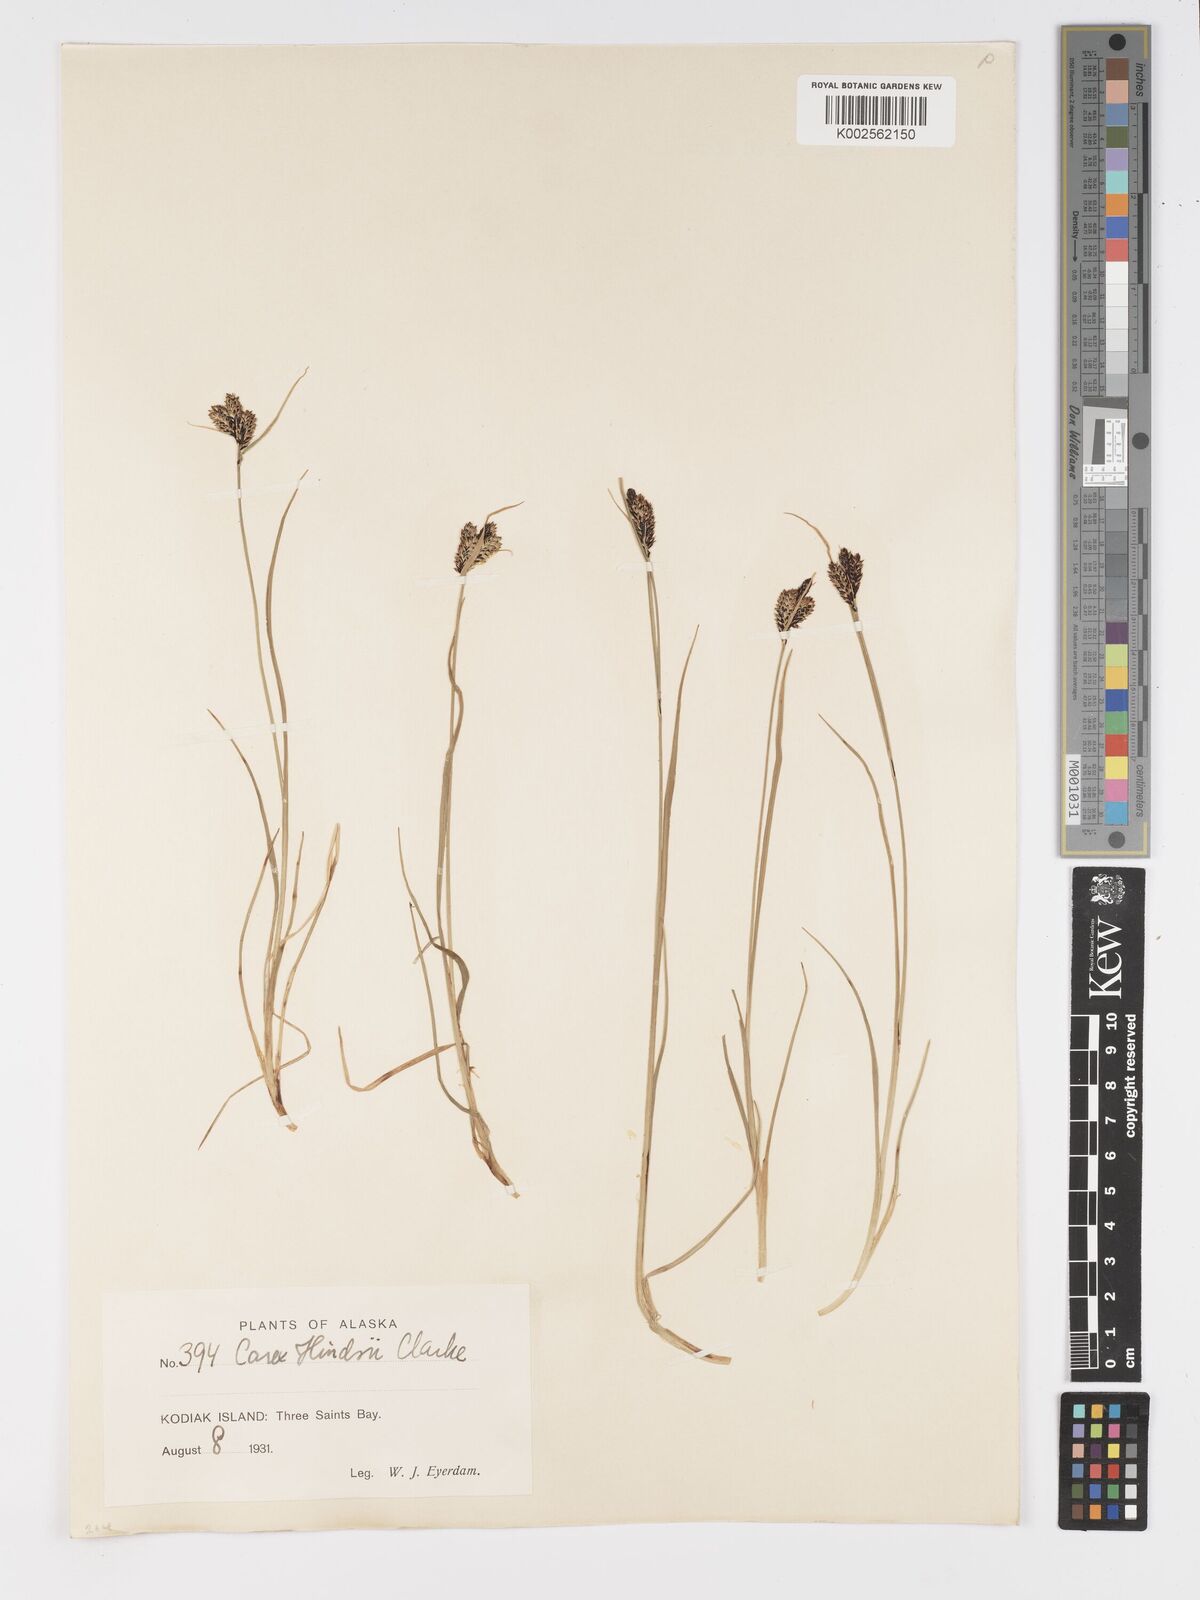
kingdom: Plantae
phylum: Tracheophyta
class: Liliopsida
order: Poales
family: Cyperaceae
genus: Carex
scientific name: Carex kelloggii
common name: Kellogg's sedge
